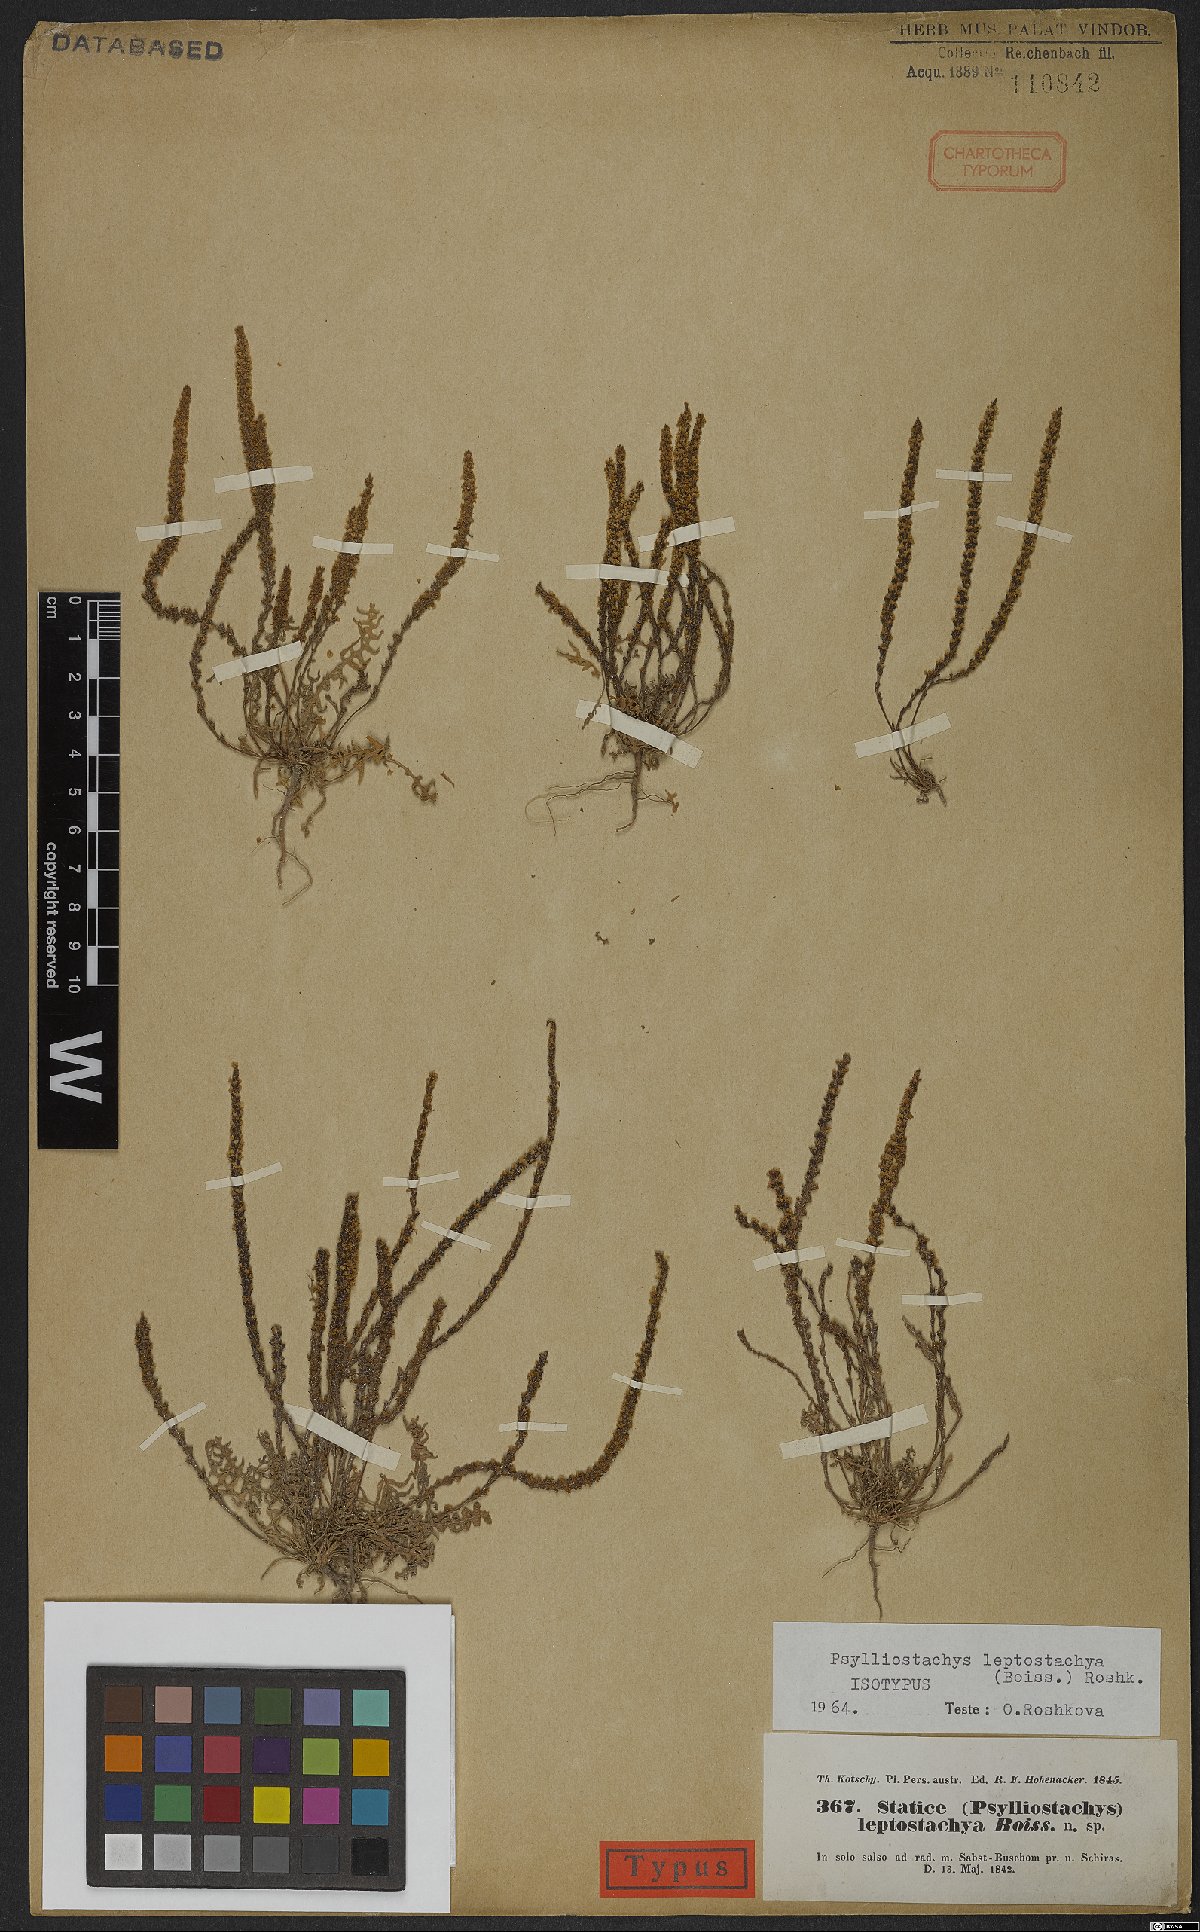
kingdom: Plantae
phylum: Tracheophyta
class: Magnoliopsida
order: Caryophyllales
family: Plumbaginaceae
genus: Psylliostachys
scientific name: Psylliostachys leptostachyus
